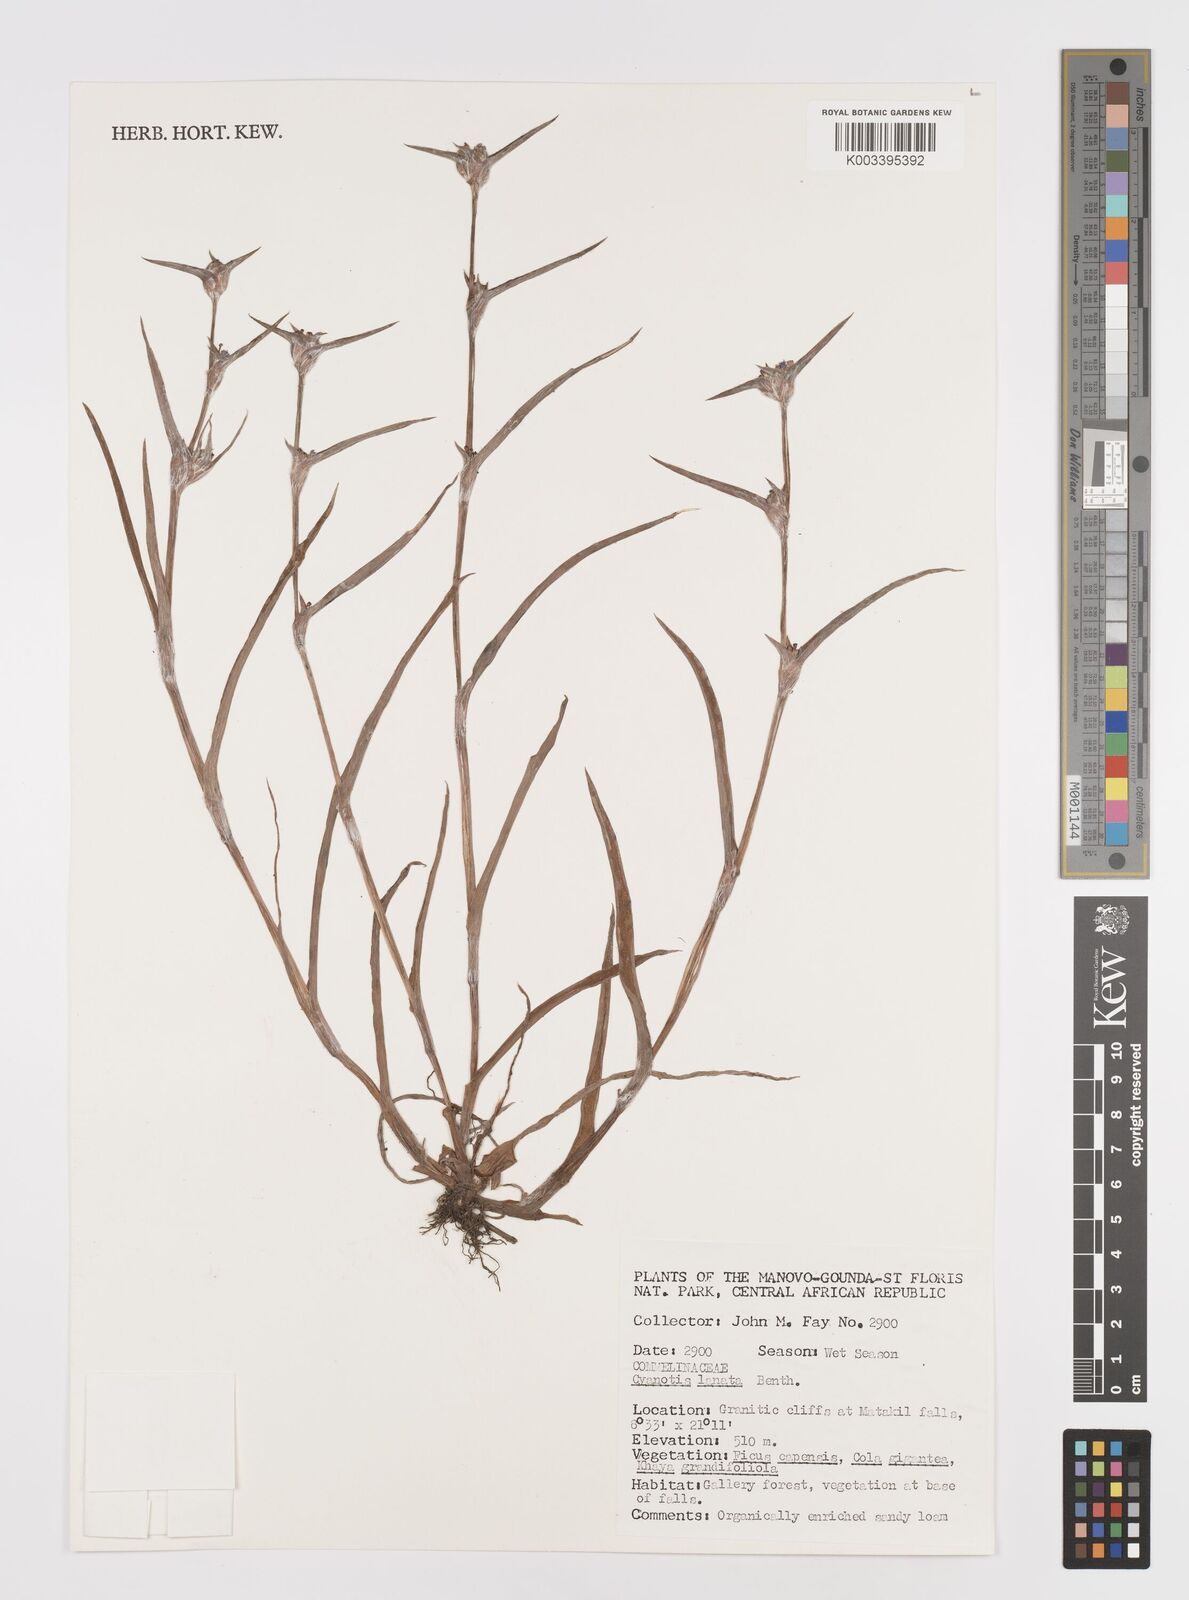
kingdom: Plantae
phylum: Tracheophyta
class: Liliopsida
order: Commelinales
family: Commelinaceae
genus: Cyanotis
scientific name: Cyanotis lanata
